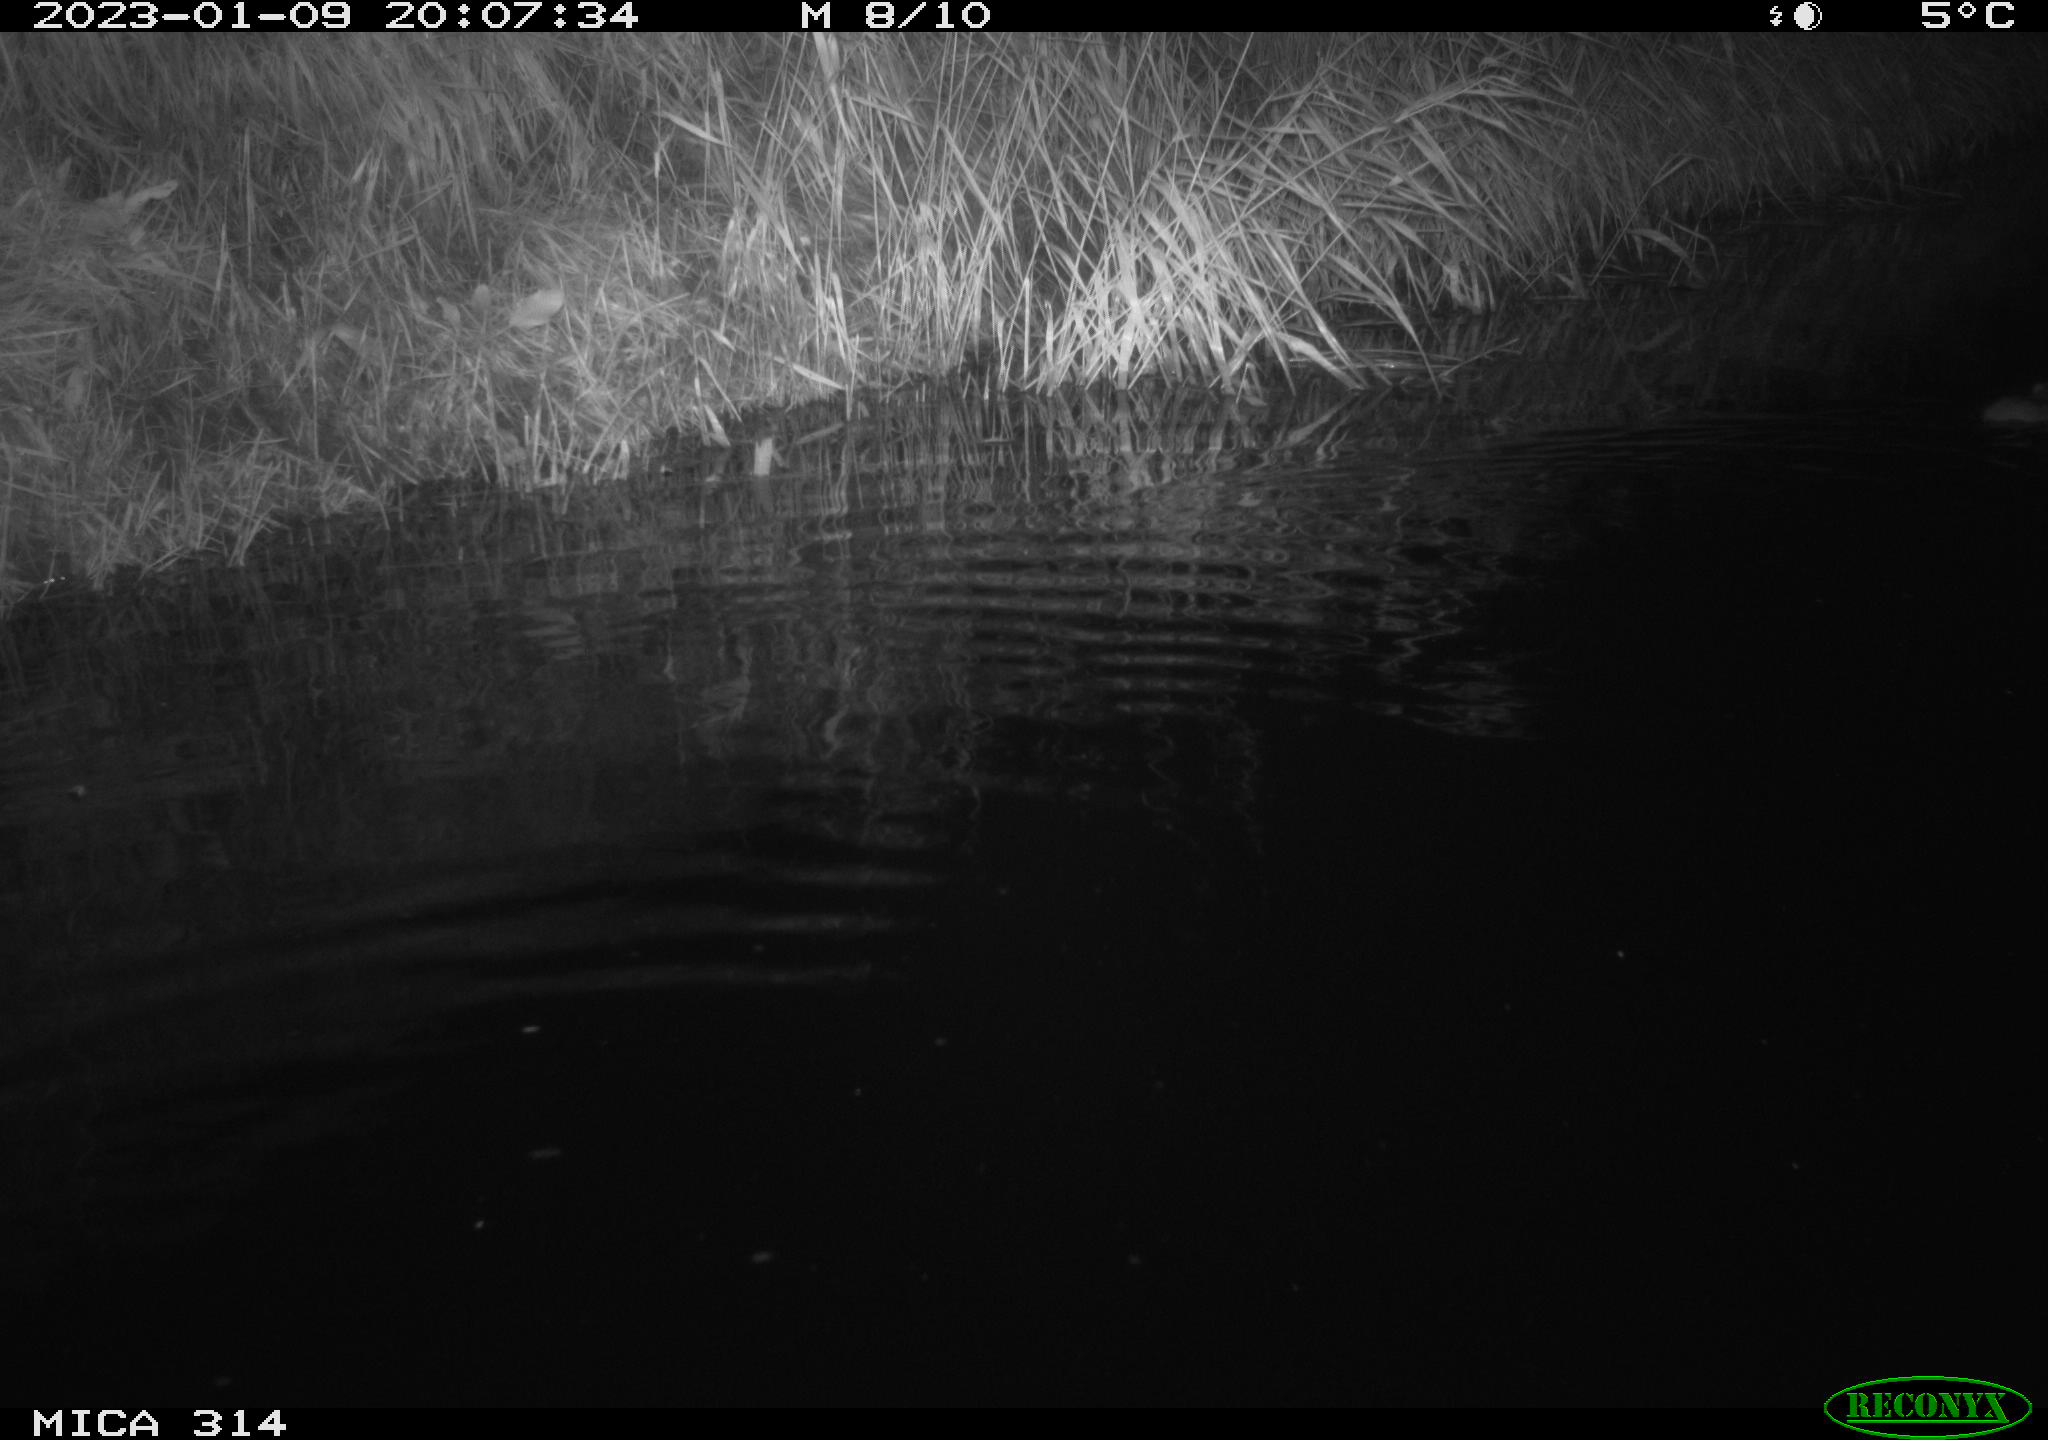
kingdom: Animalia
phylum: Chordata
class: Mammalia
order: Rodentia
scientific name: Rodentia
